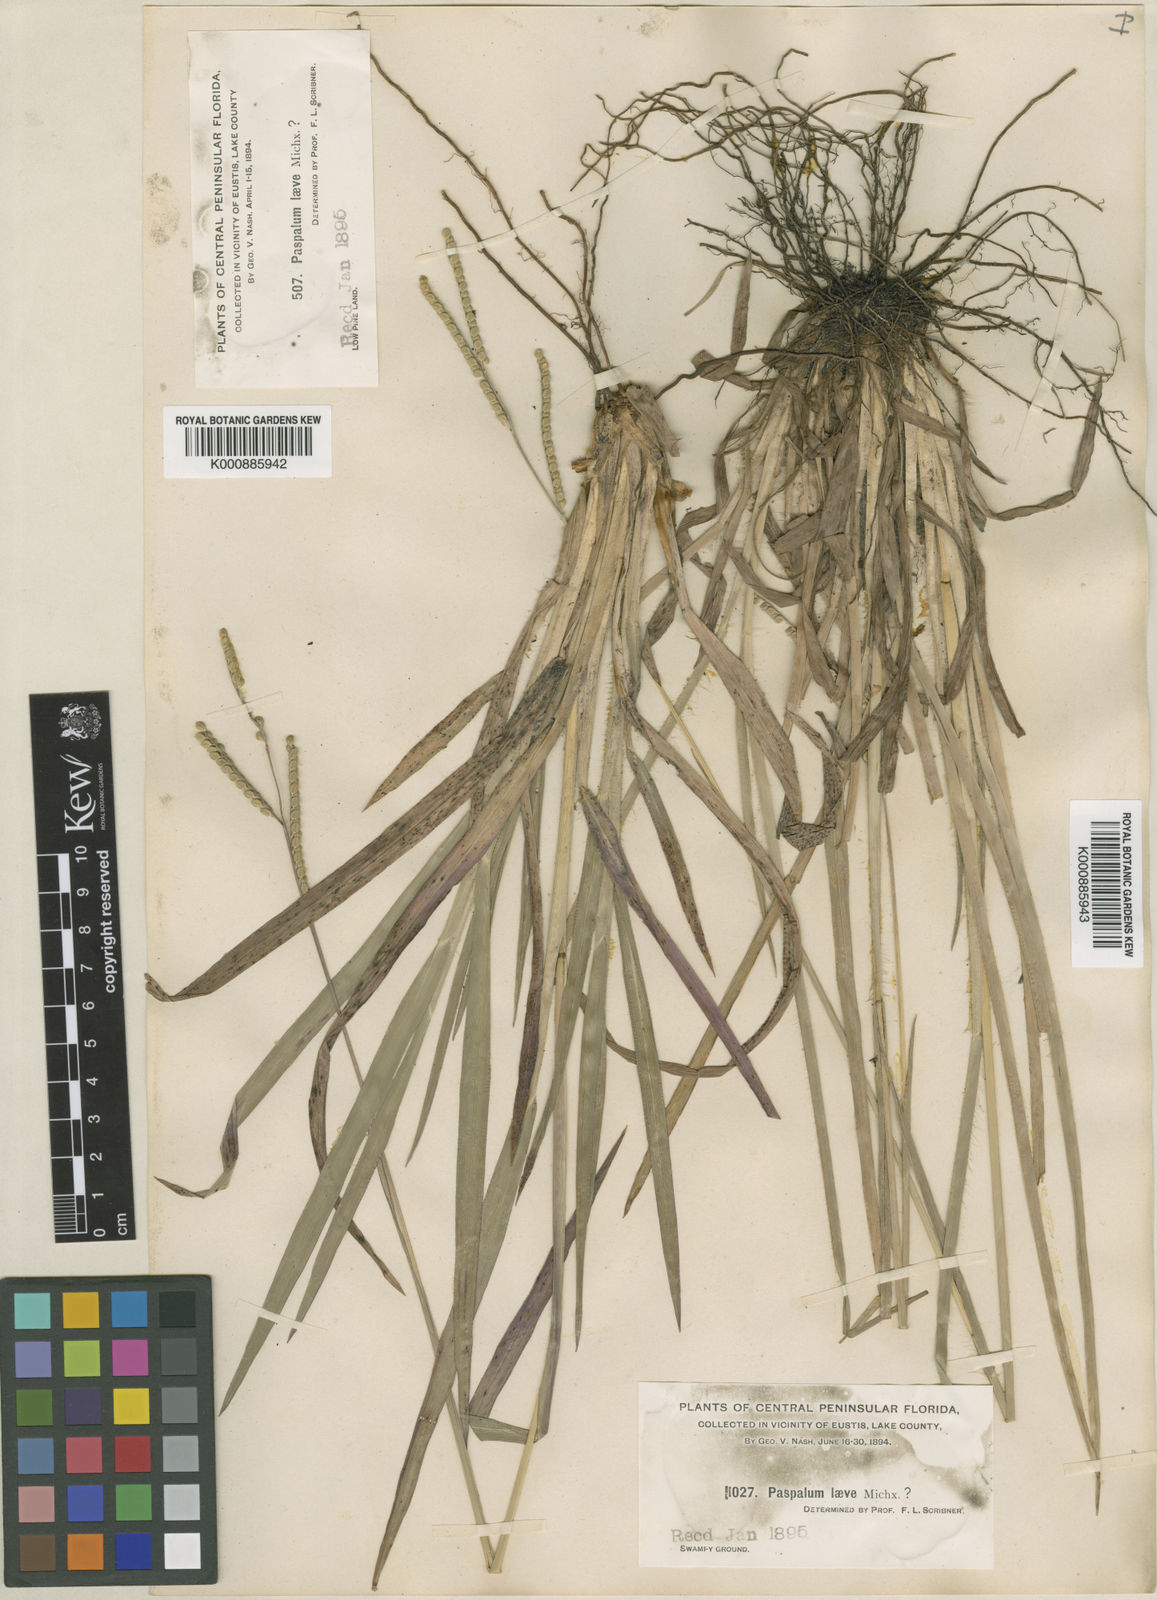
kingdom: Plantae
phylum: Tracheophyta
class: Liliopsida
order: Poales
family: Poaceae
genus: Paspalum
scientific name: Paspalum laeve
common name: Field paspalum
